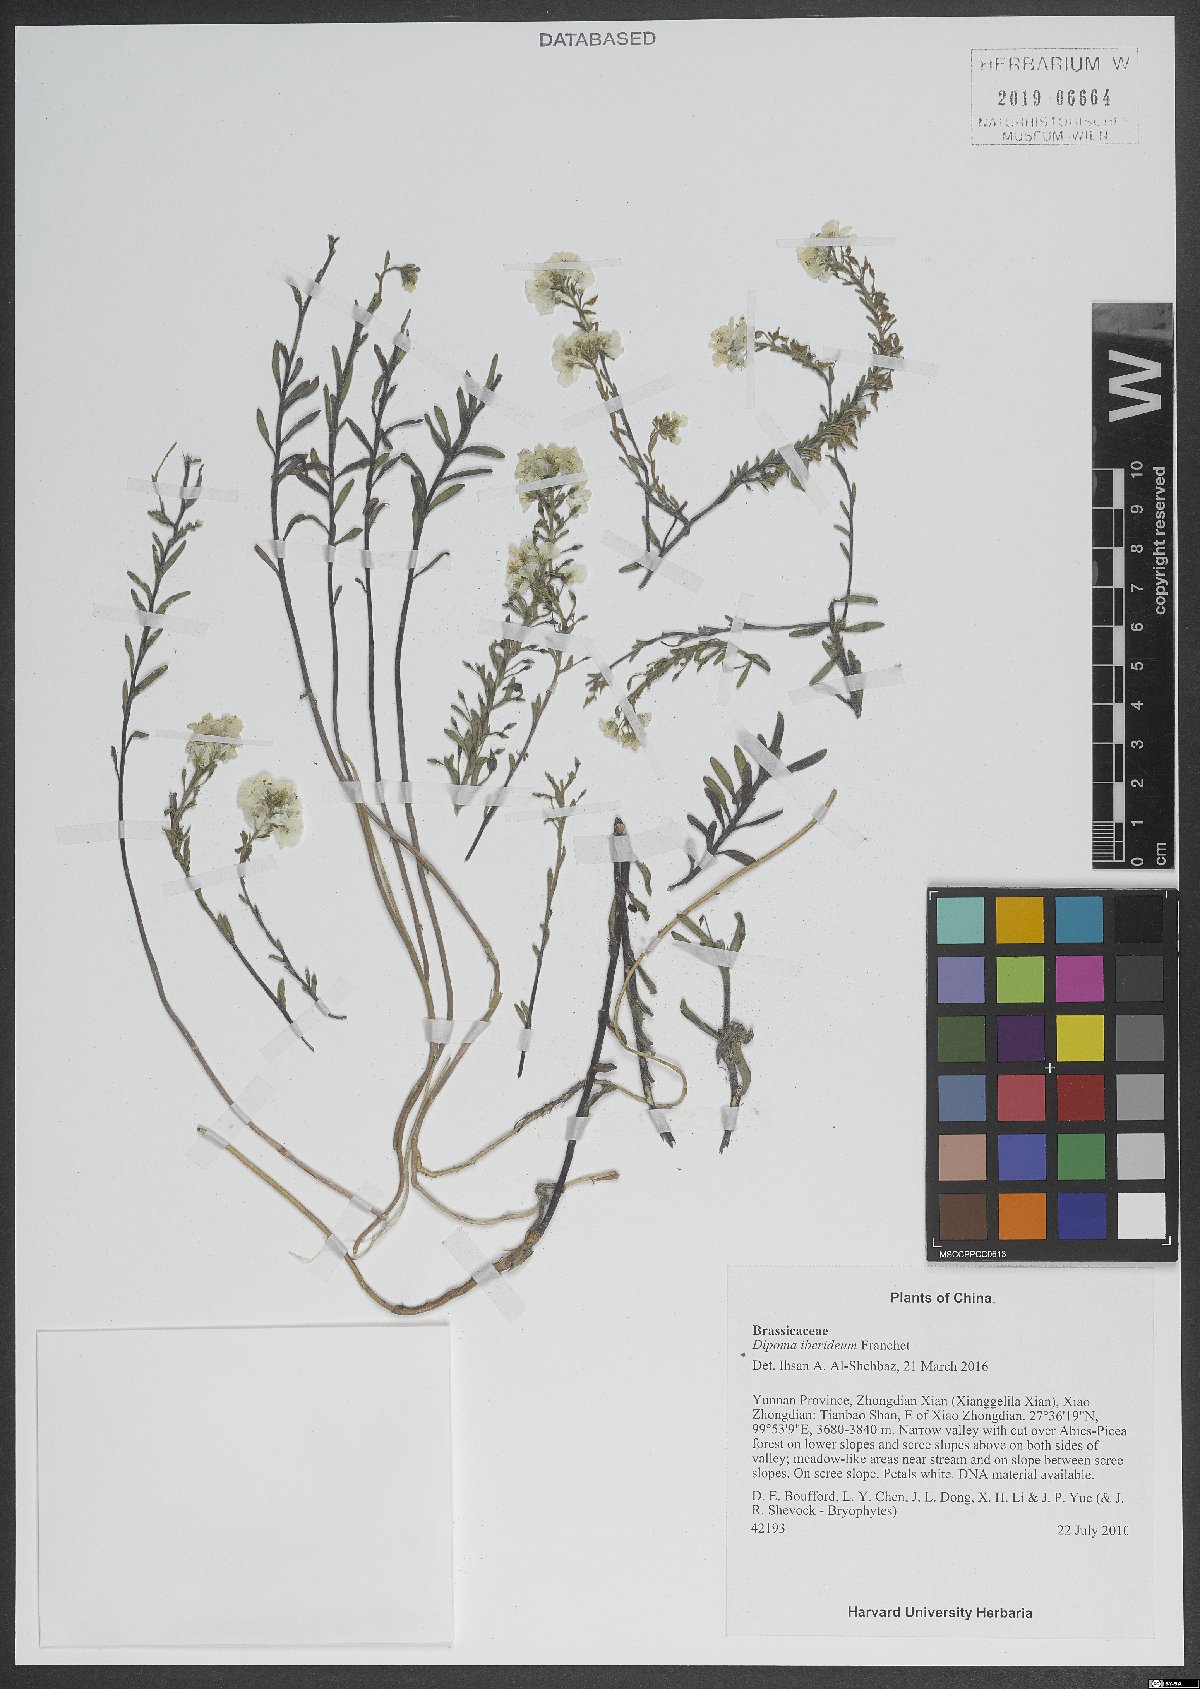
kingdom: Plantae
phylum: Tracheophyta
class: Magnoliopsida
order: Brassicales
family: Brassicaceae
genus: Dipoma
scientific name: Dipoma iberideum
